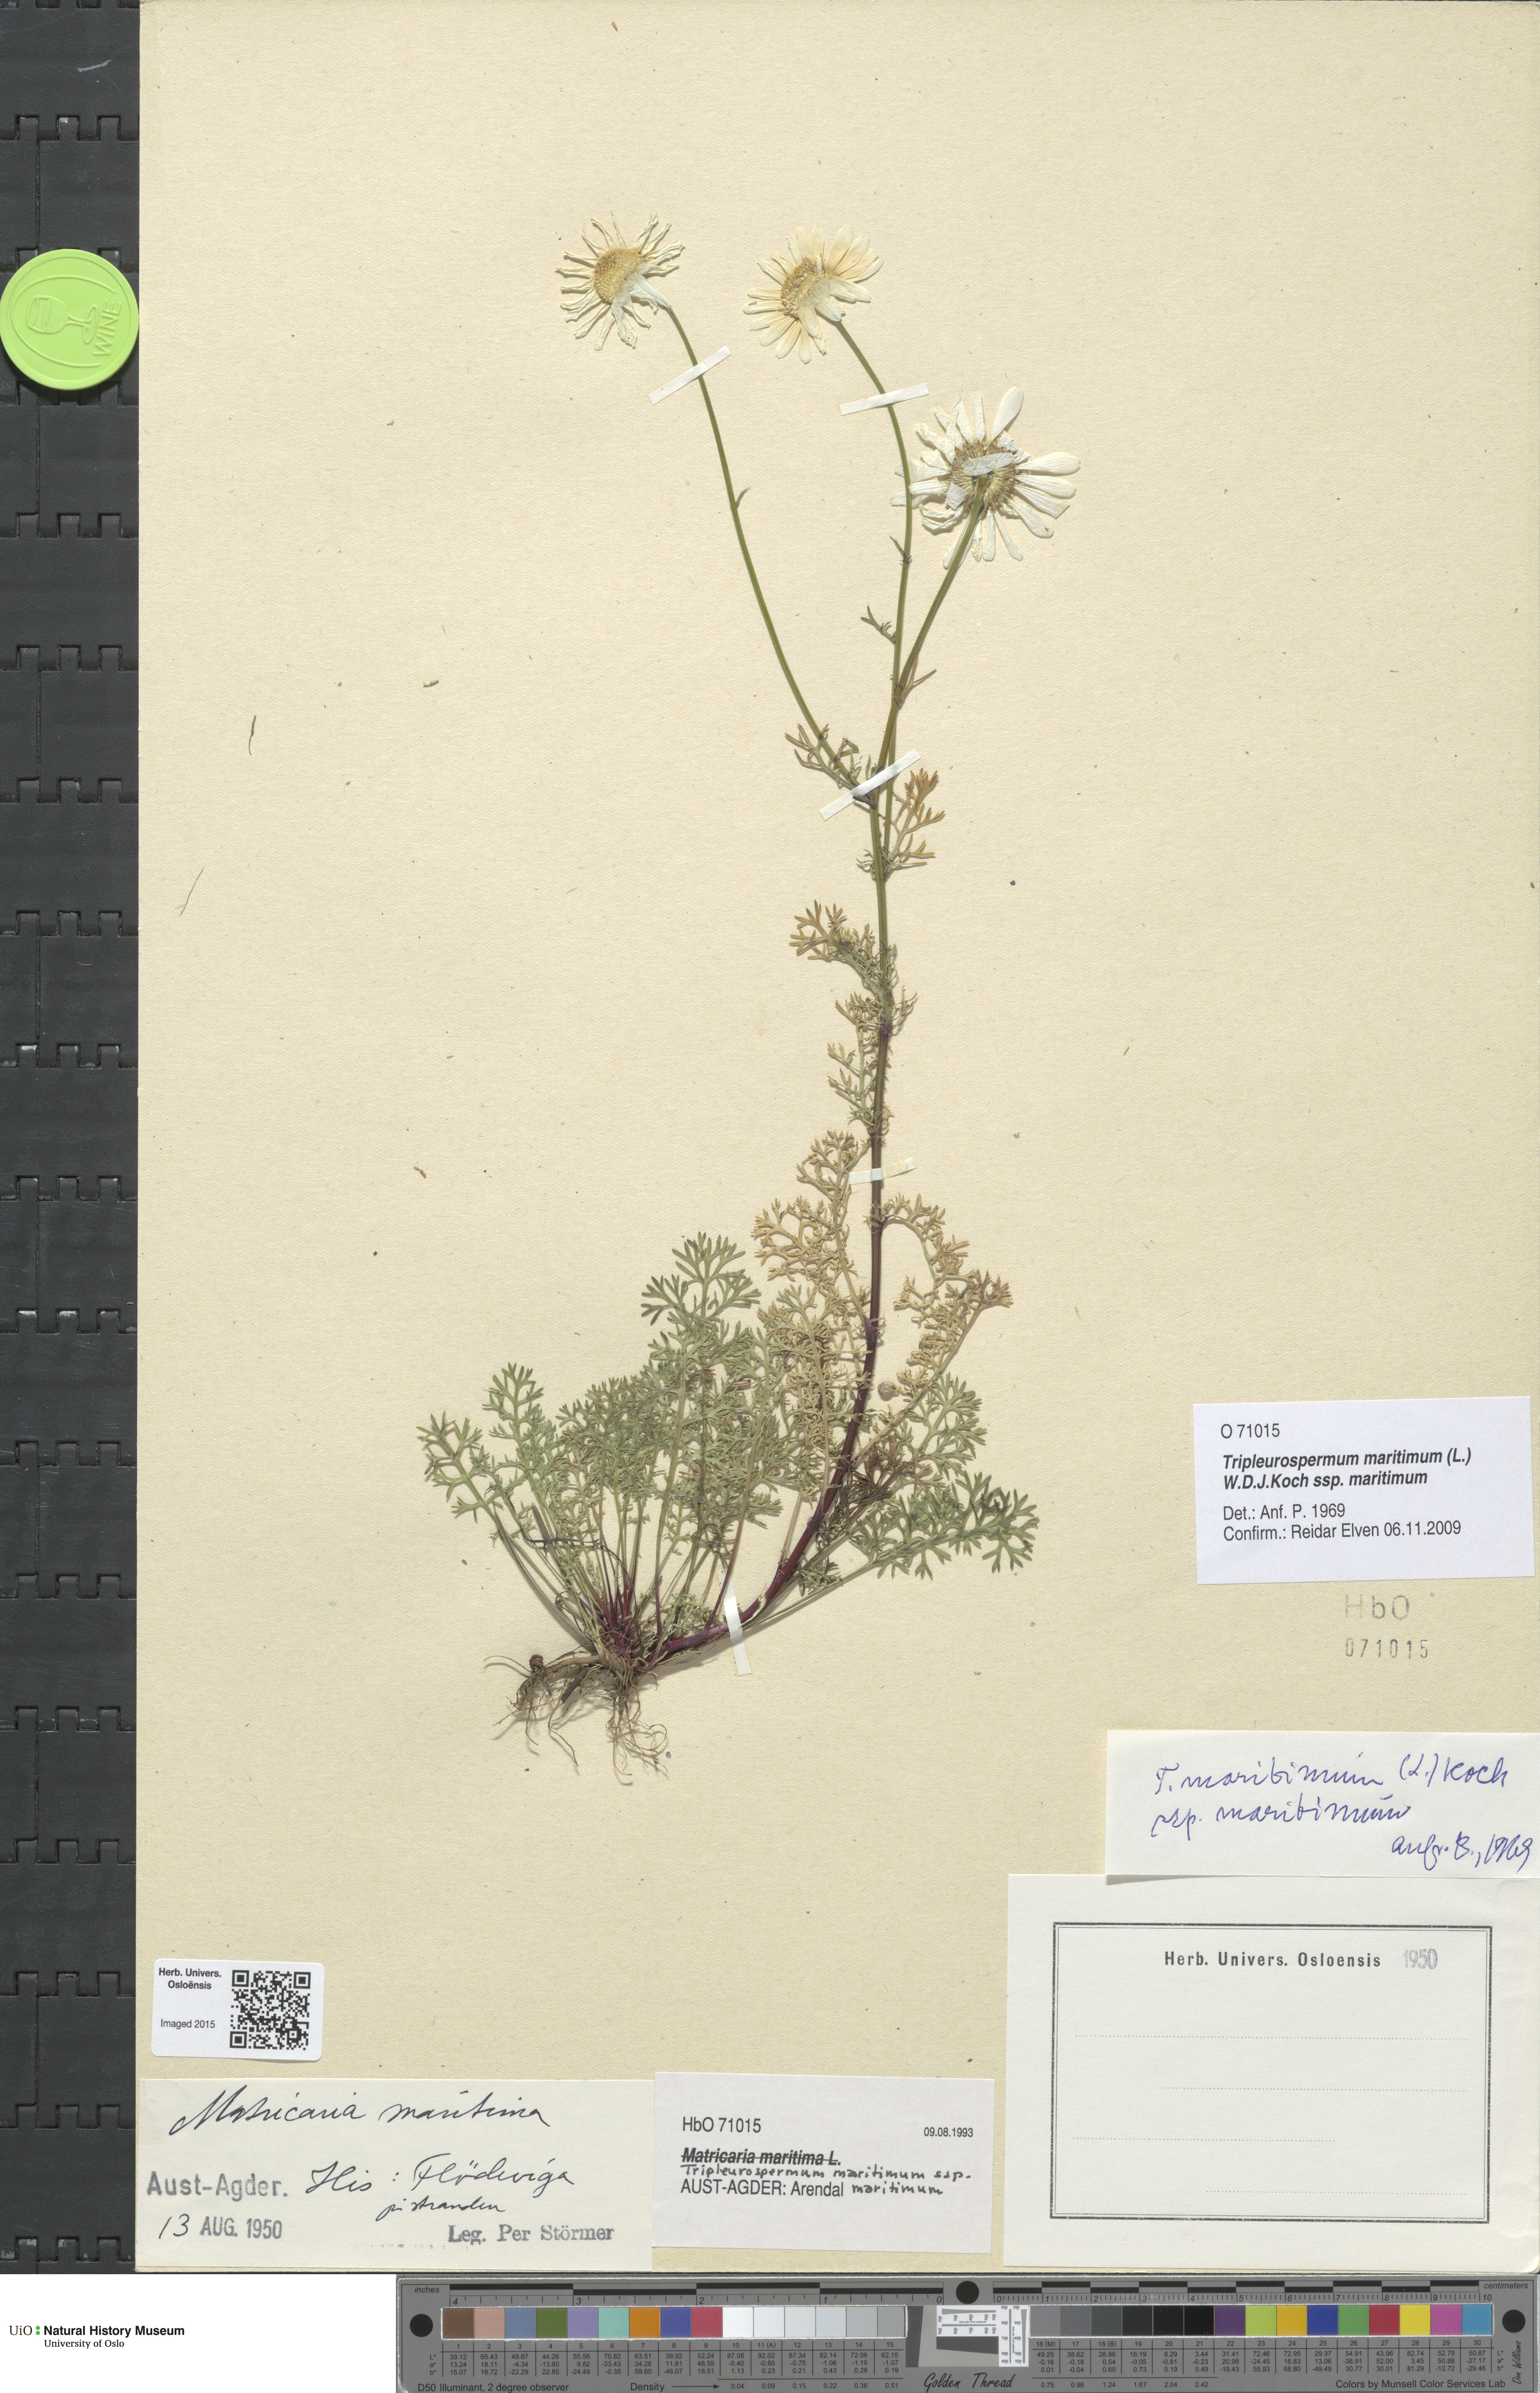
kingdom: Plantae
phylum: Tracheophyta
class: Magnoliopsida
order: Asterales
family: Asteraceae
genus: Tripleurospermum
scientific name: Tripleurospermum maritimum
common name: Sea mayweed
